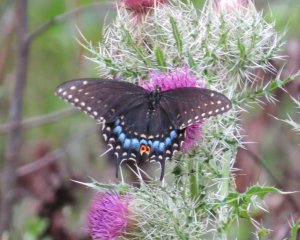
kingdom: Animalia
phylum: Arthropoda
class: Insecta
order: Lepidoptera
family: Papilionidae
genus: Papilio
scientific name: Papilio polyxenes
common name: Black Swallowtail
